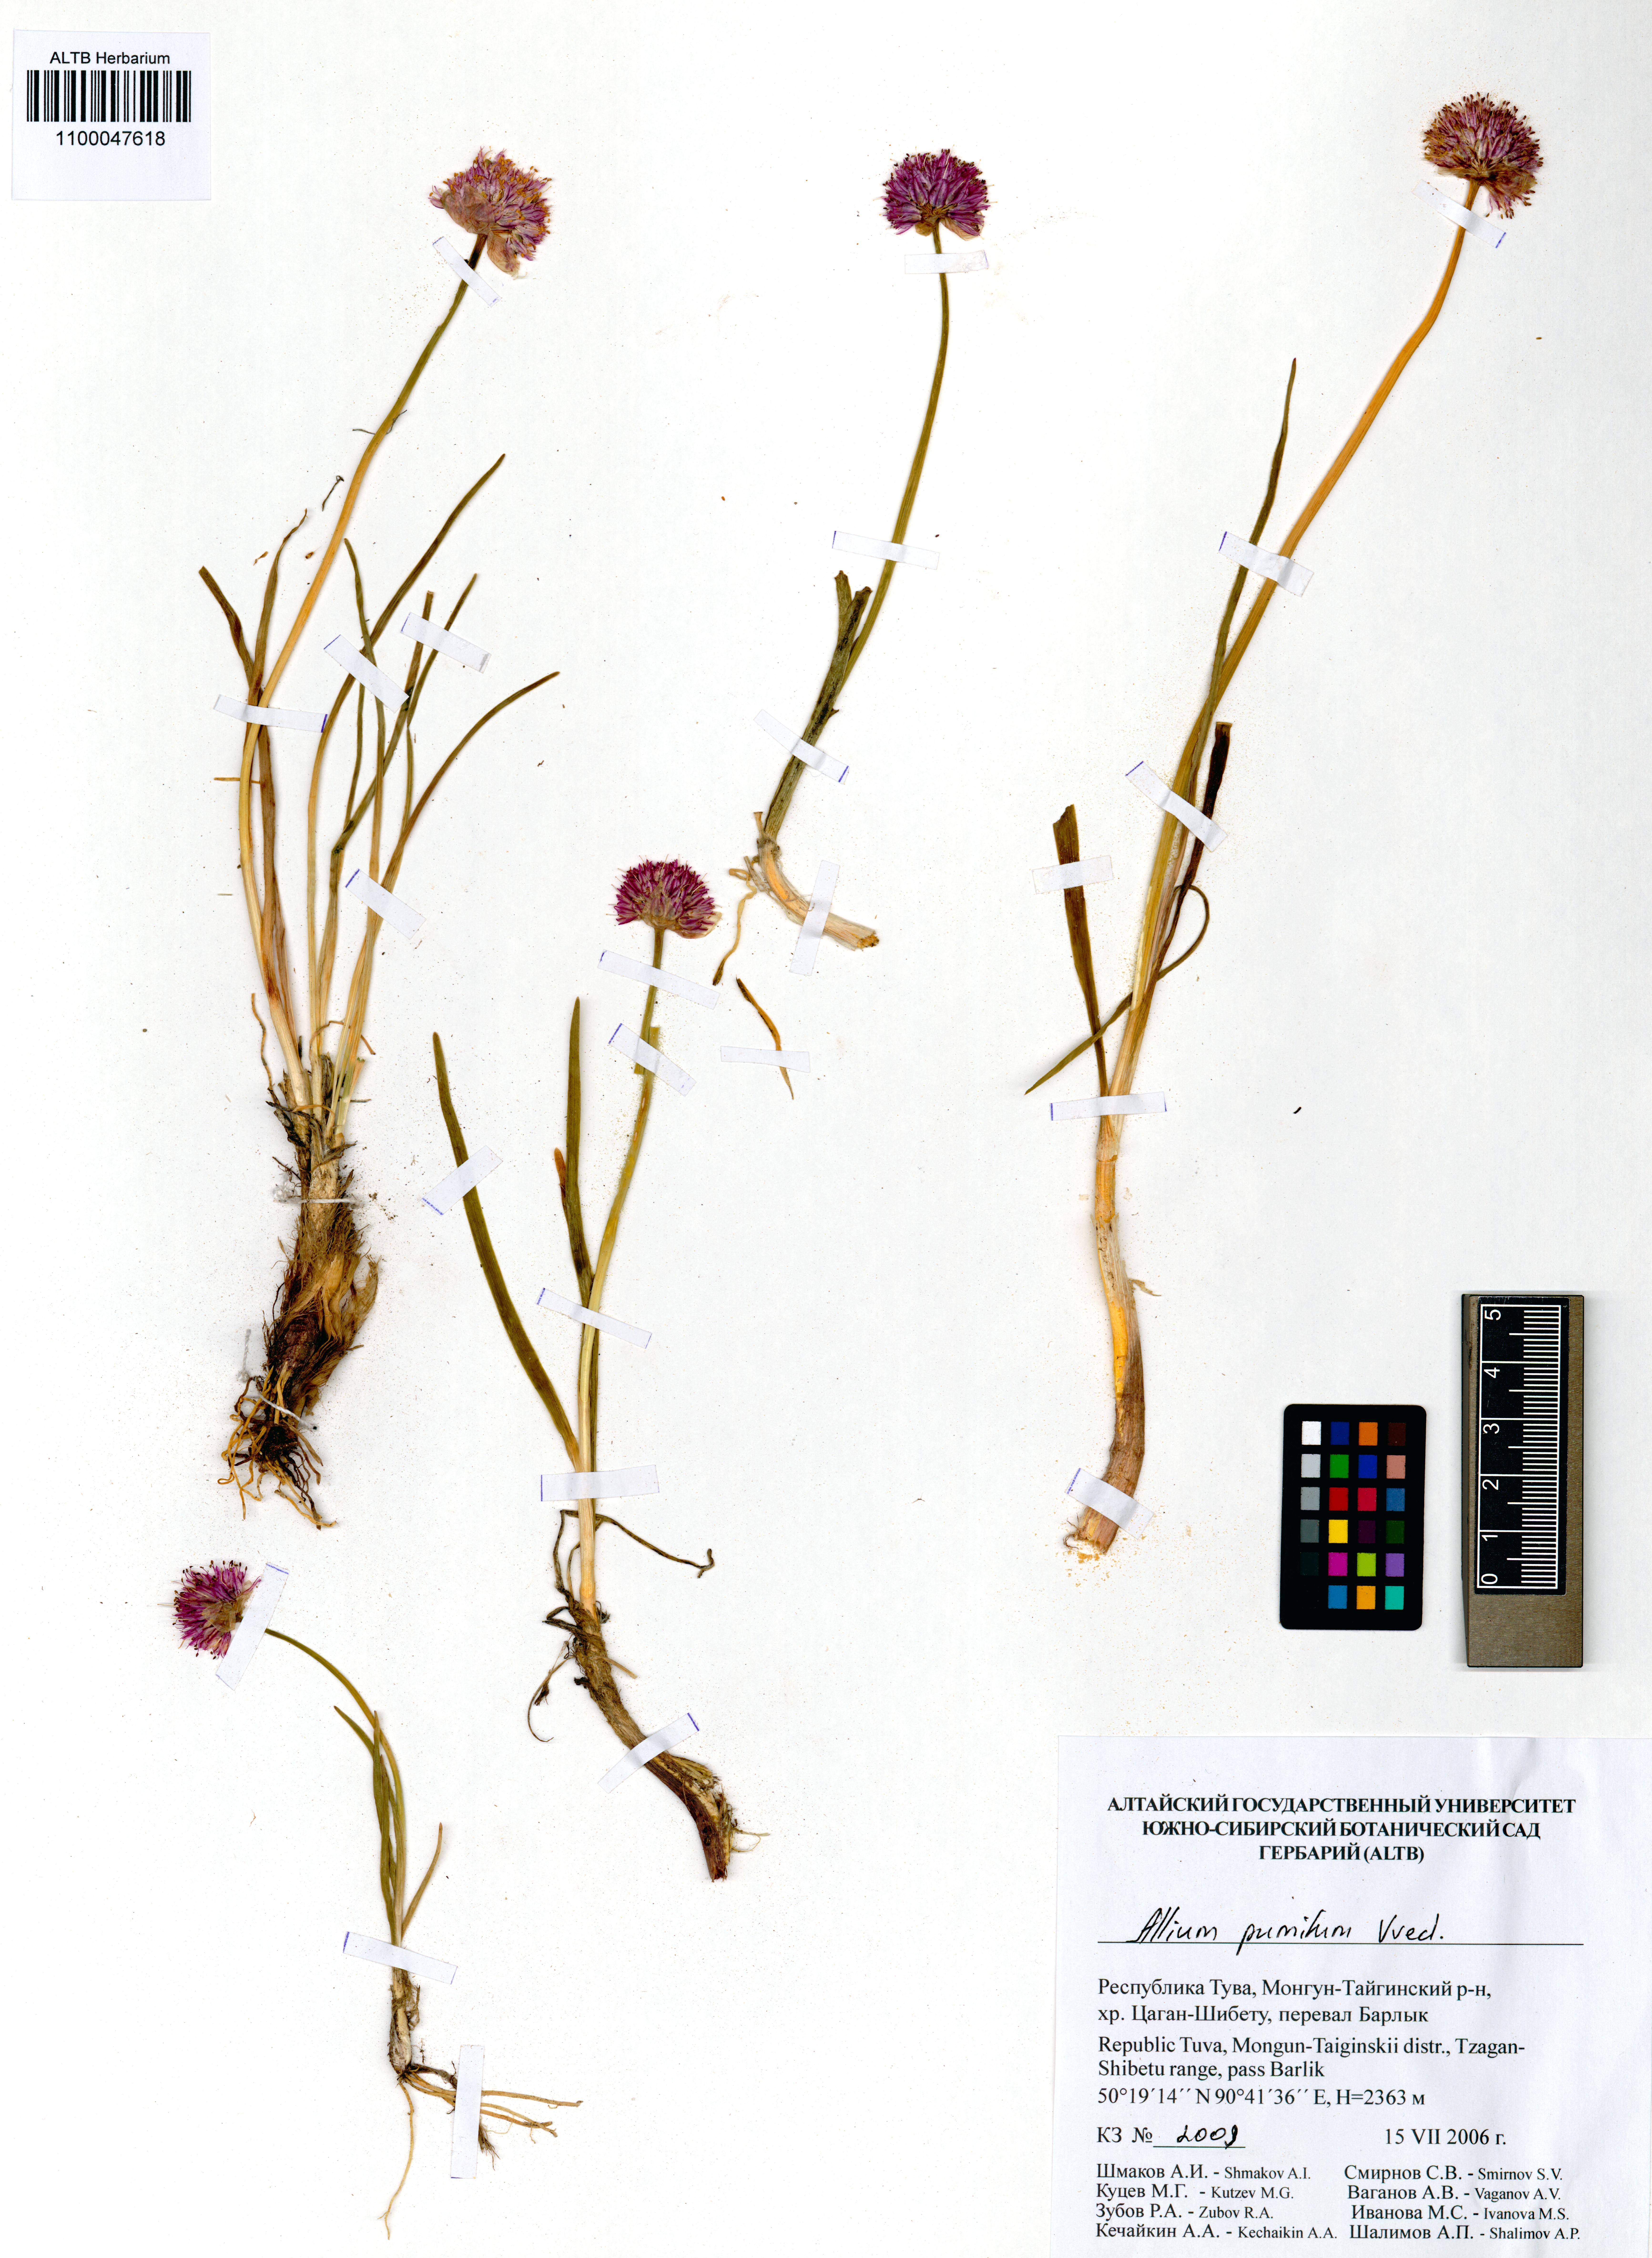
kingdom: Plantae
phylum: Tracheophyta
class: Liliopsida
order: Asparagales
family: Amaryllidaceae
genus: Allium
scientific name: Allium pumilum
